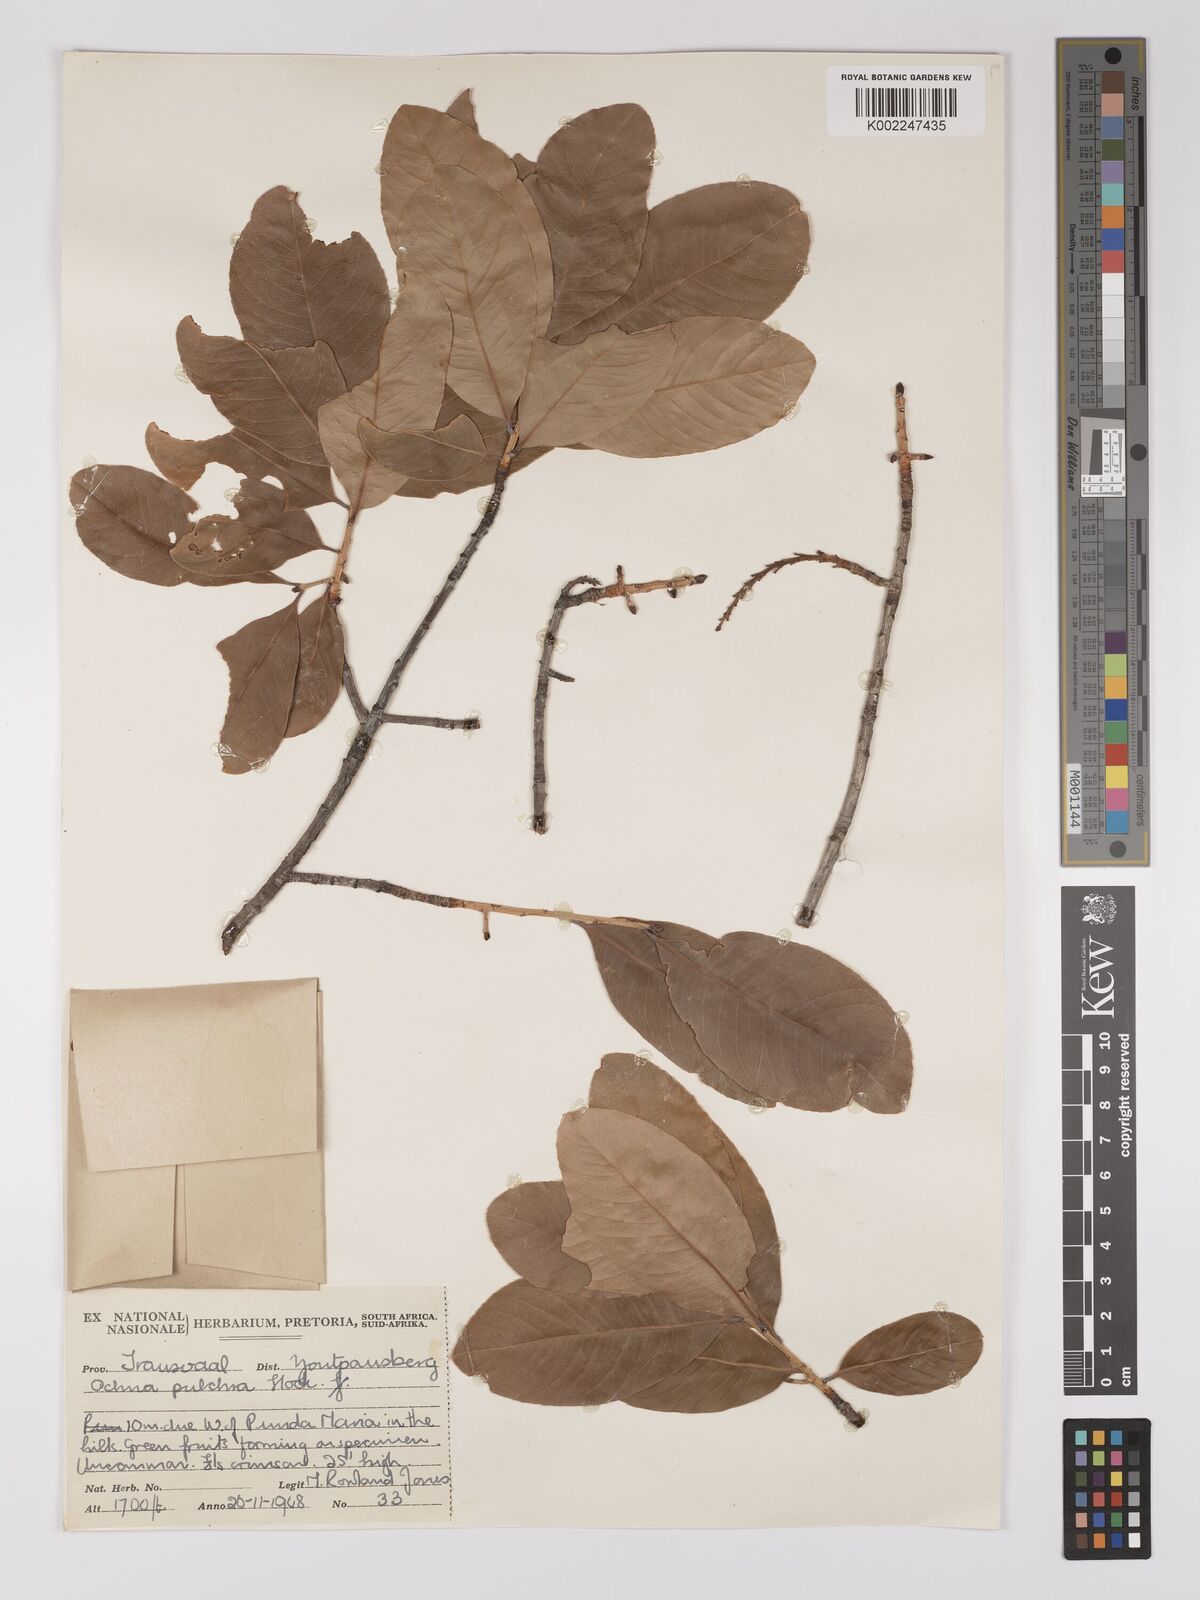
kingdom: Plantae
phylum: Tracheophyta
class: Magnoliopsida
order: Malpighiales
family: Ochnaceae
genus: Ochna
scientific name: Ochna pulchra
